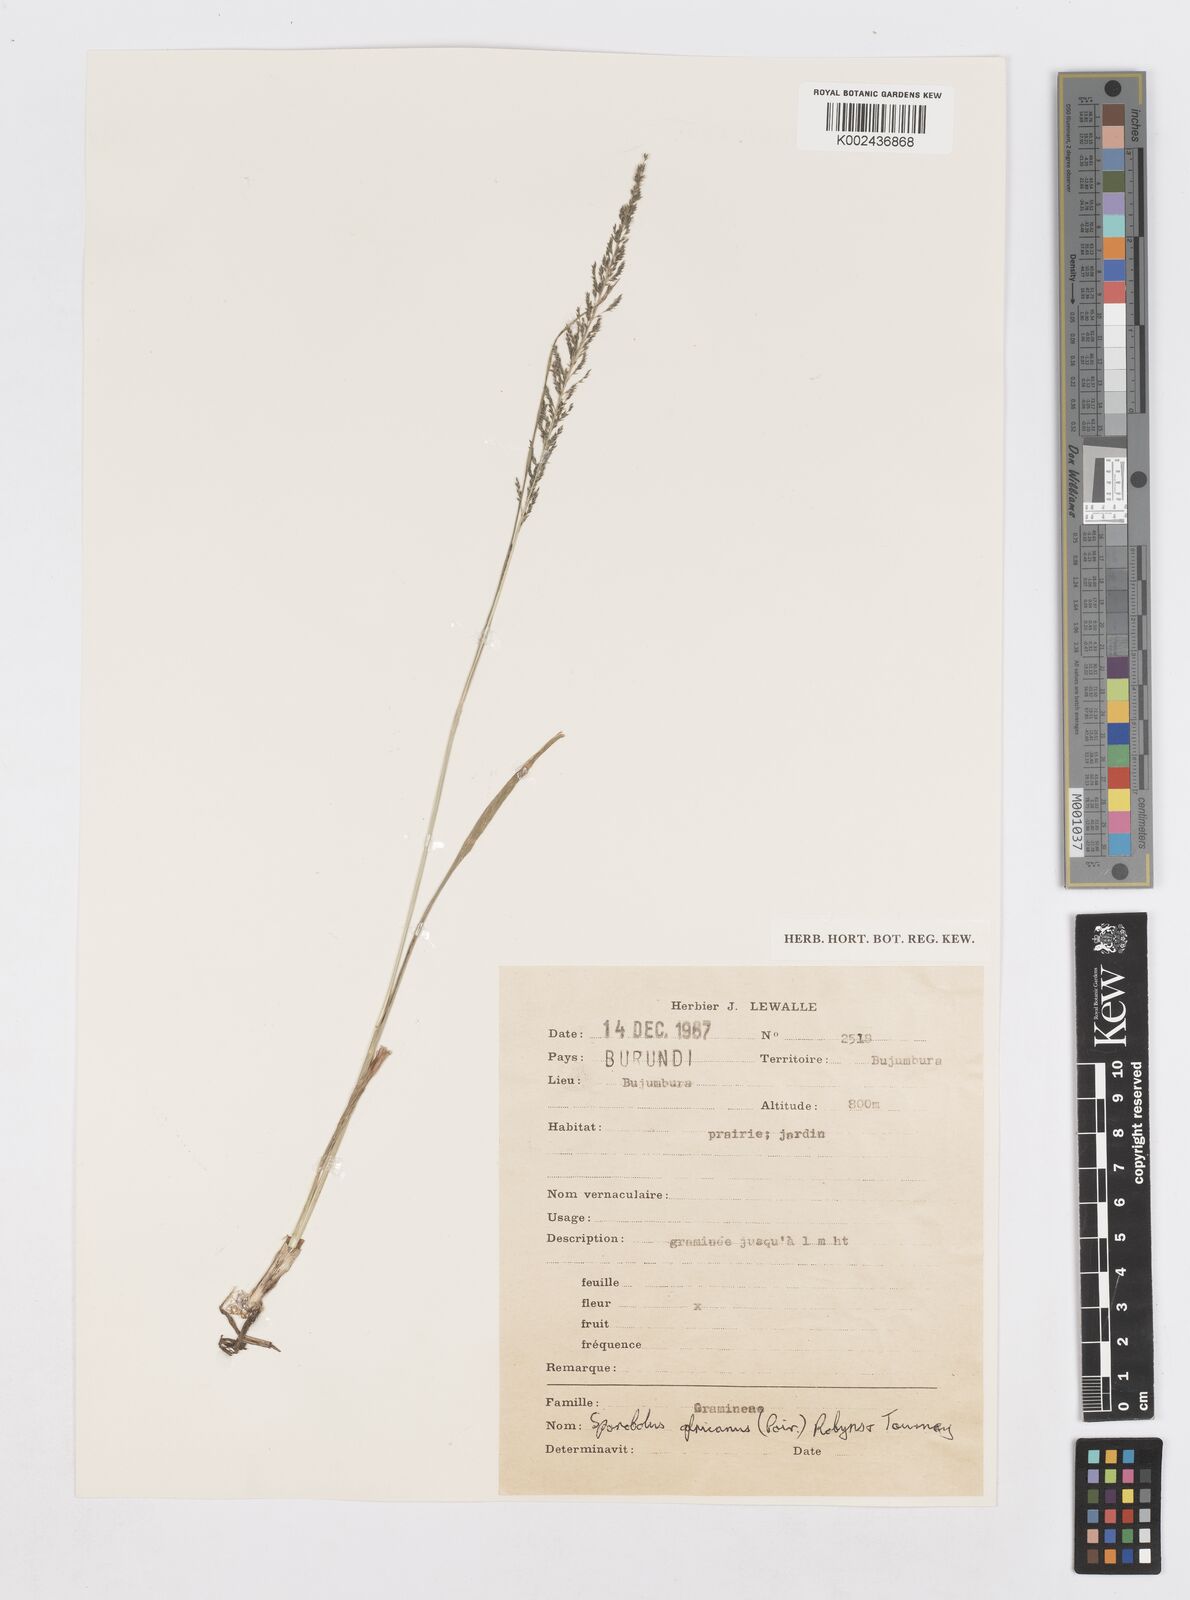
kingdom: Plantae
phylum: Tracheophyta
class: Liliopsida
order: Poales
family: Poaceae
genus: Sporobolus
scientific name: Sporobolus africanus
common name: African dropseed
